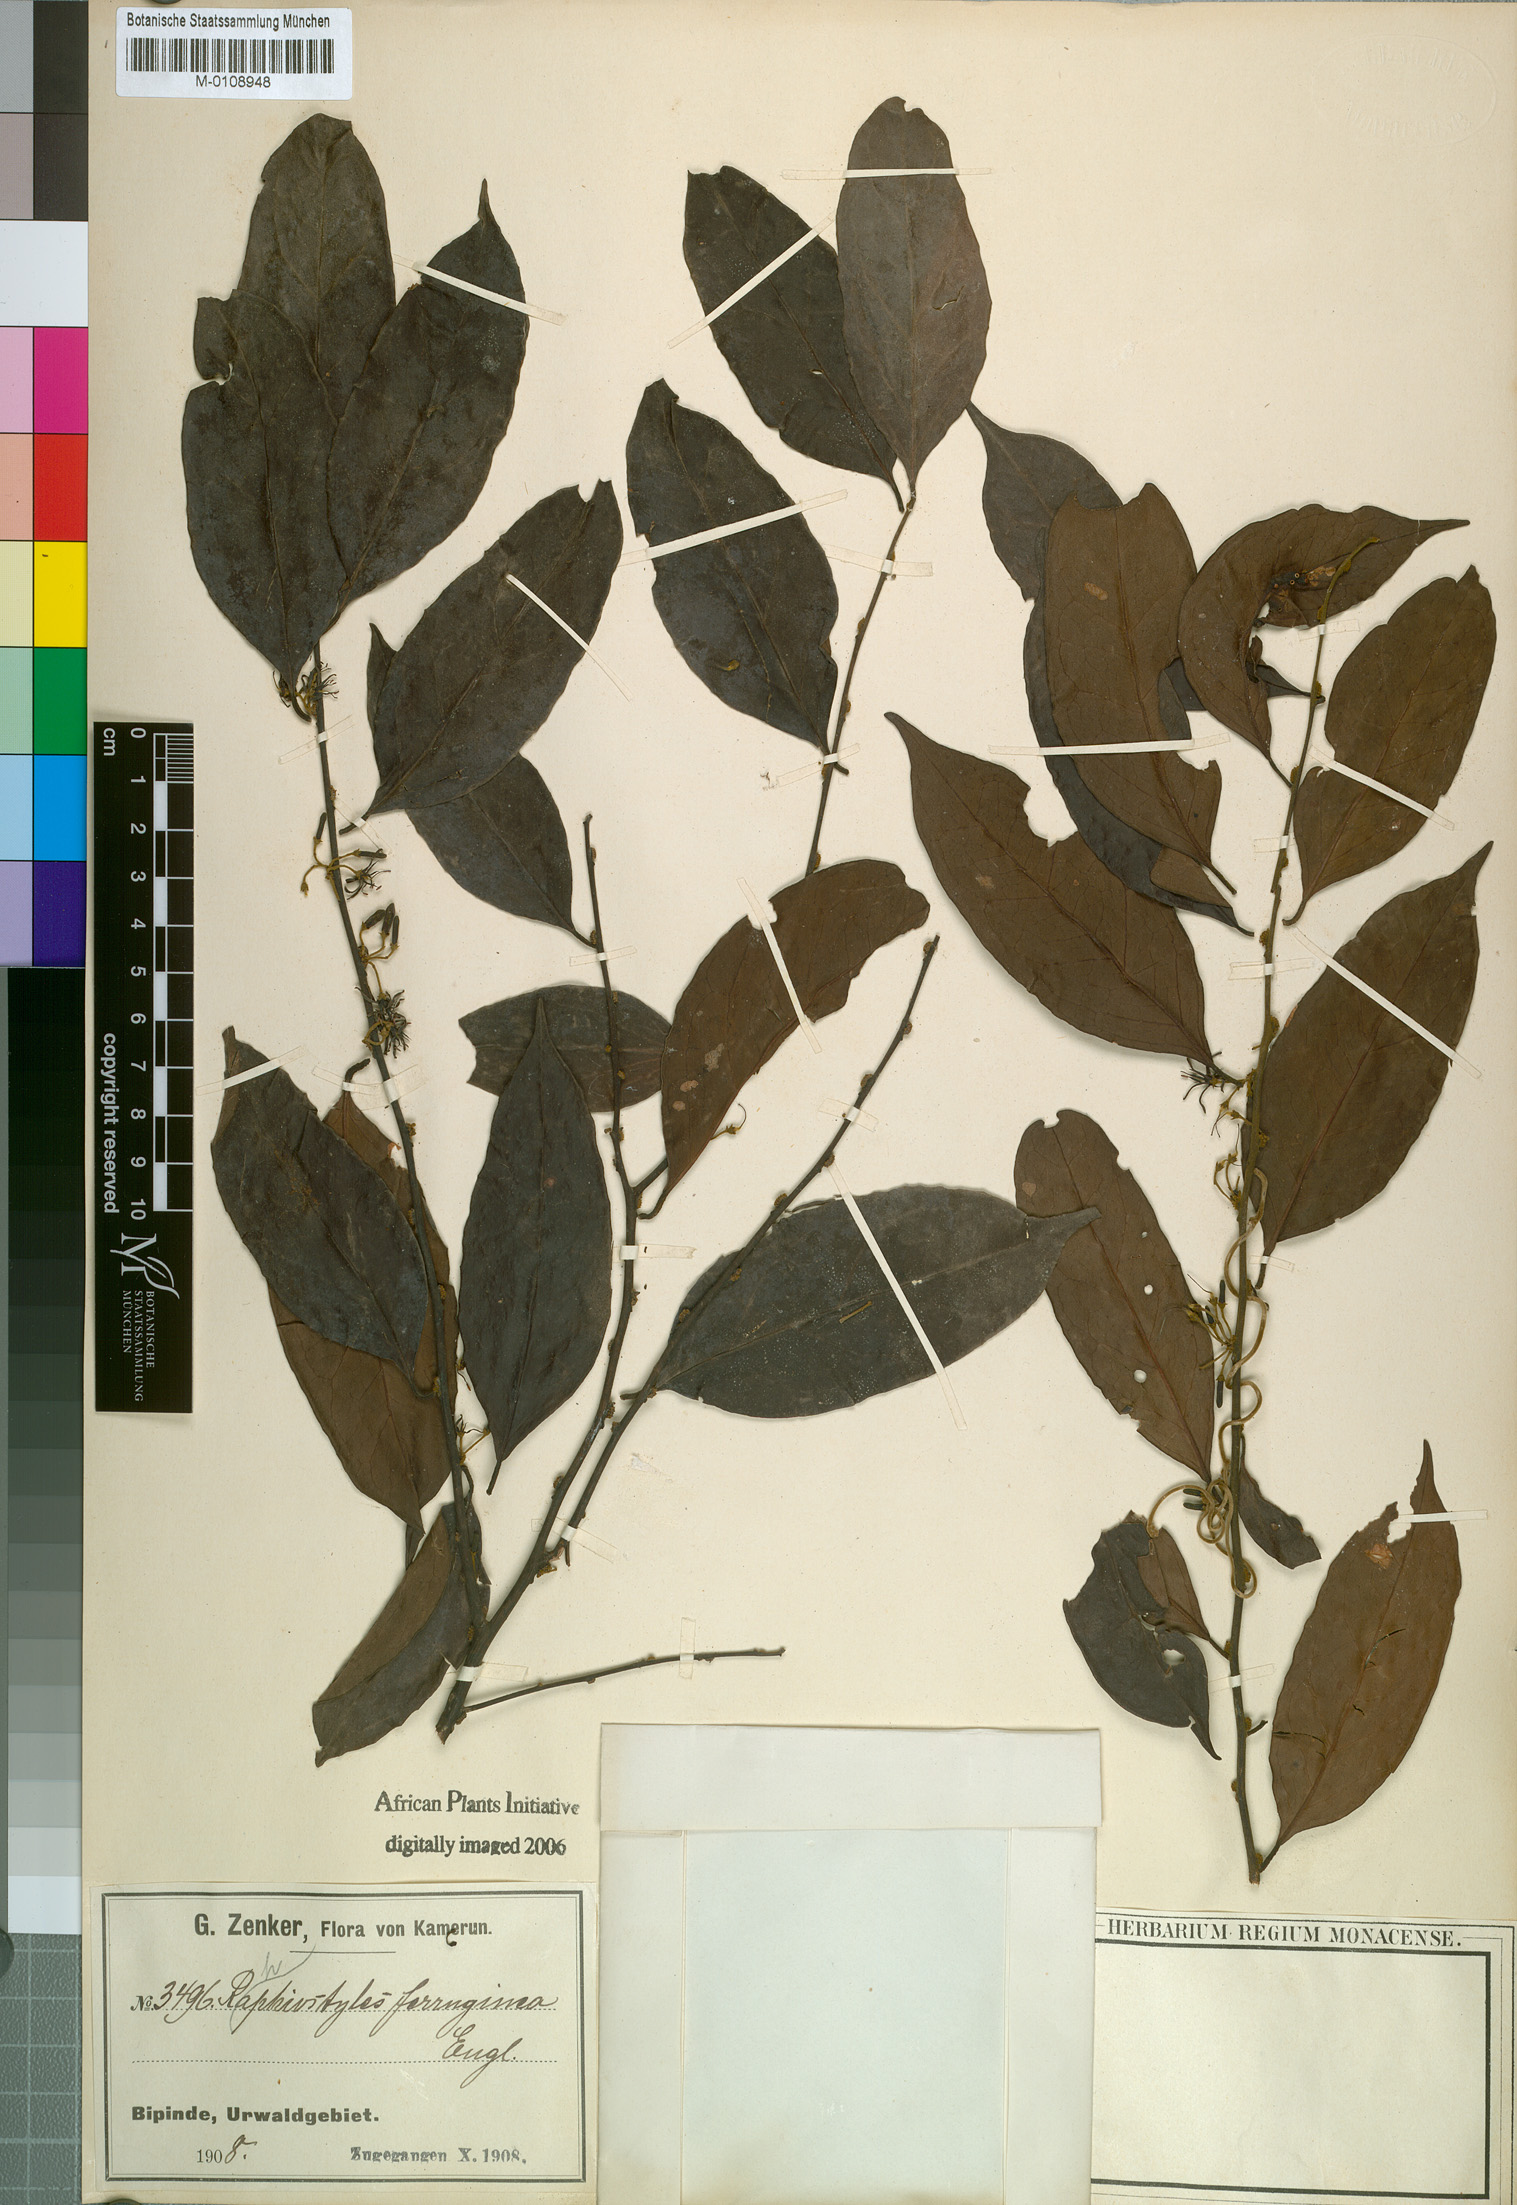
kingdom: Plantae
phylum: Tracheophyta
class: Magnoliopsida
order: Metteniusales
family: Metteniusaceae
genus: Rhaphiostylis
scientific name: Rhaphiostylis ferruginea
